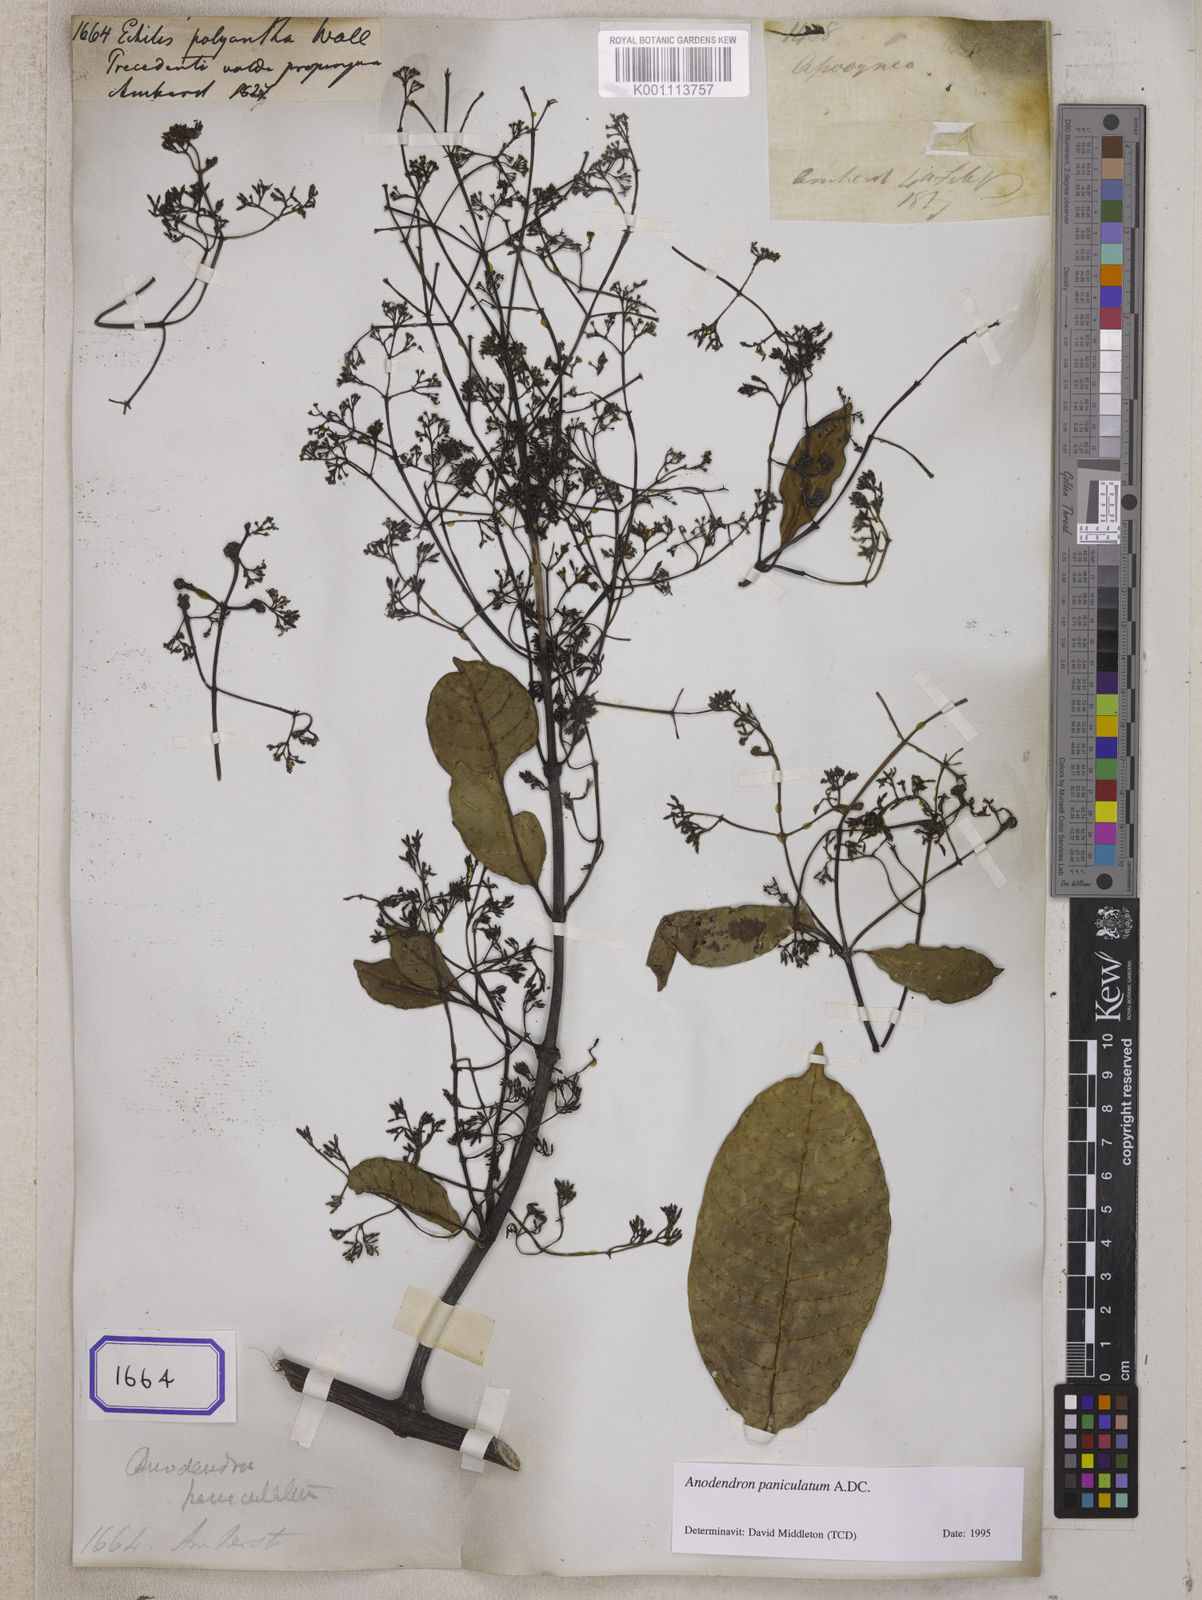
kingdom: Plantae
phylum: Tracheophyta
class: Magnoliopsida
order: Gentianales
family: Apocynaceae
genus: Anodendron
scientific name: Anodendron parviflorum
